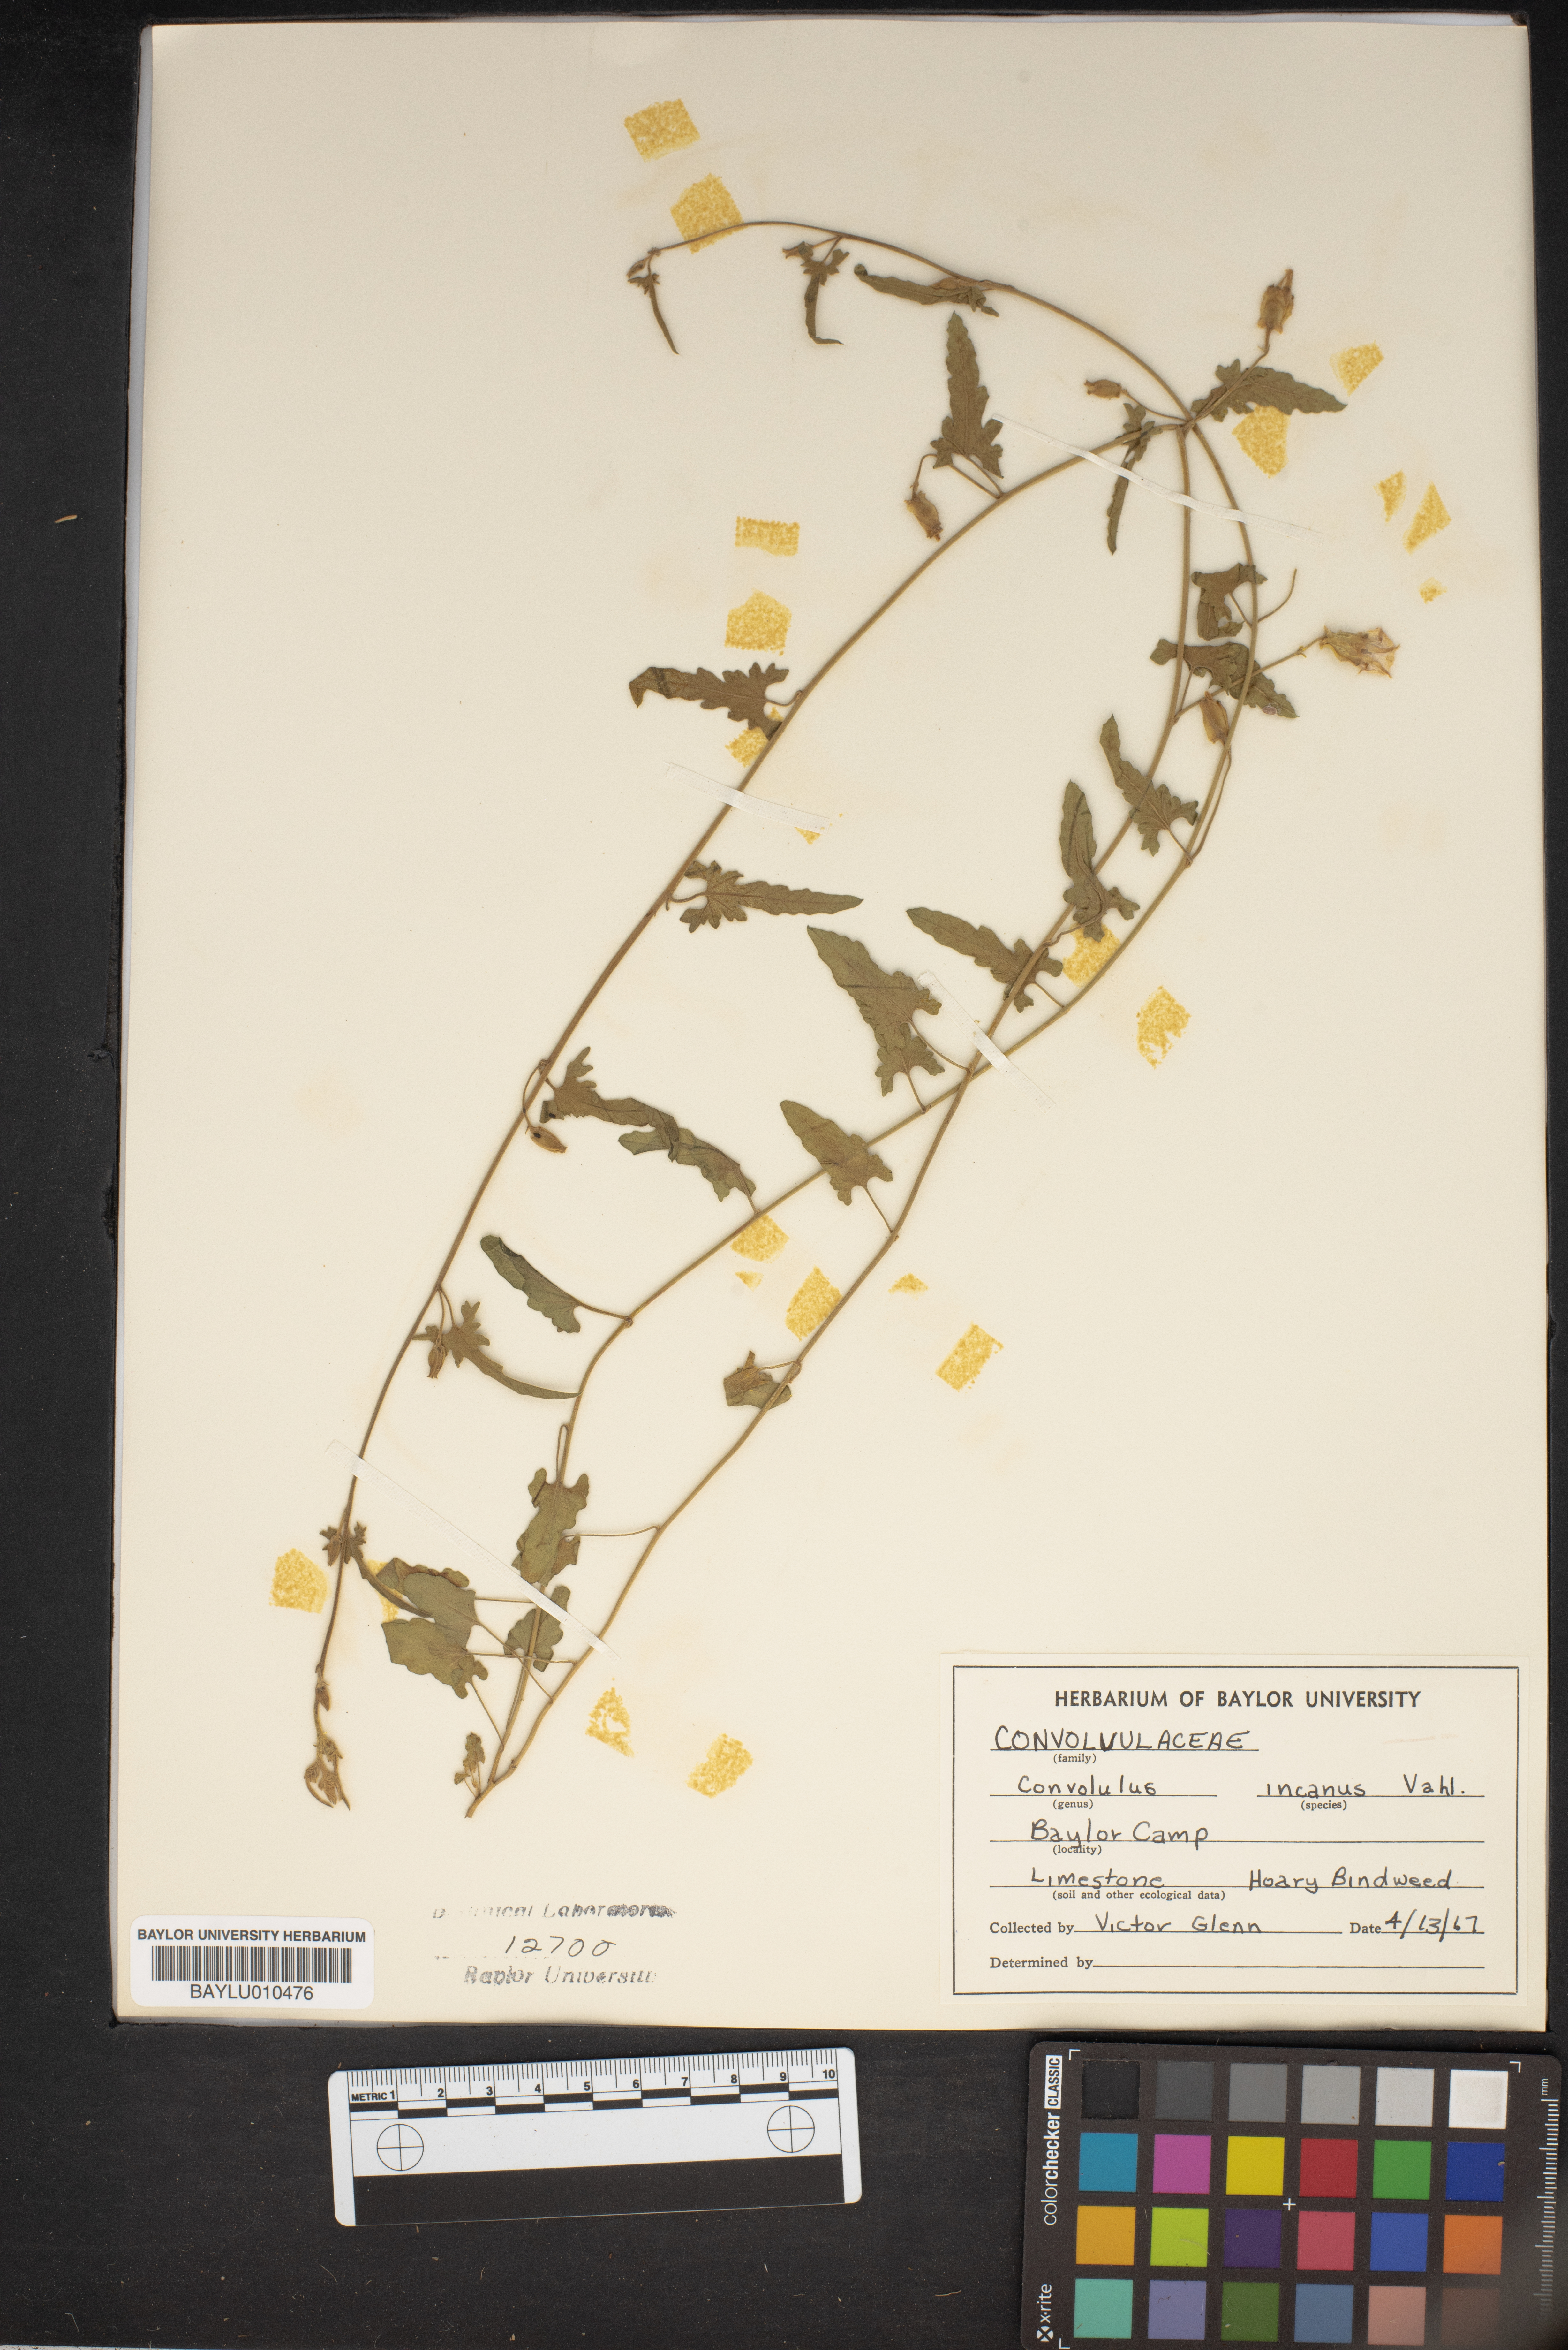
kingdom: Plantae
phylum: Tracheophyta
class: Magnoliopsida
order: Solanales
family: Convolvulaceae
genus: Convolvulus
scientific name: Convolvulus hermanniae
